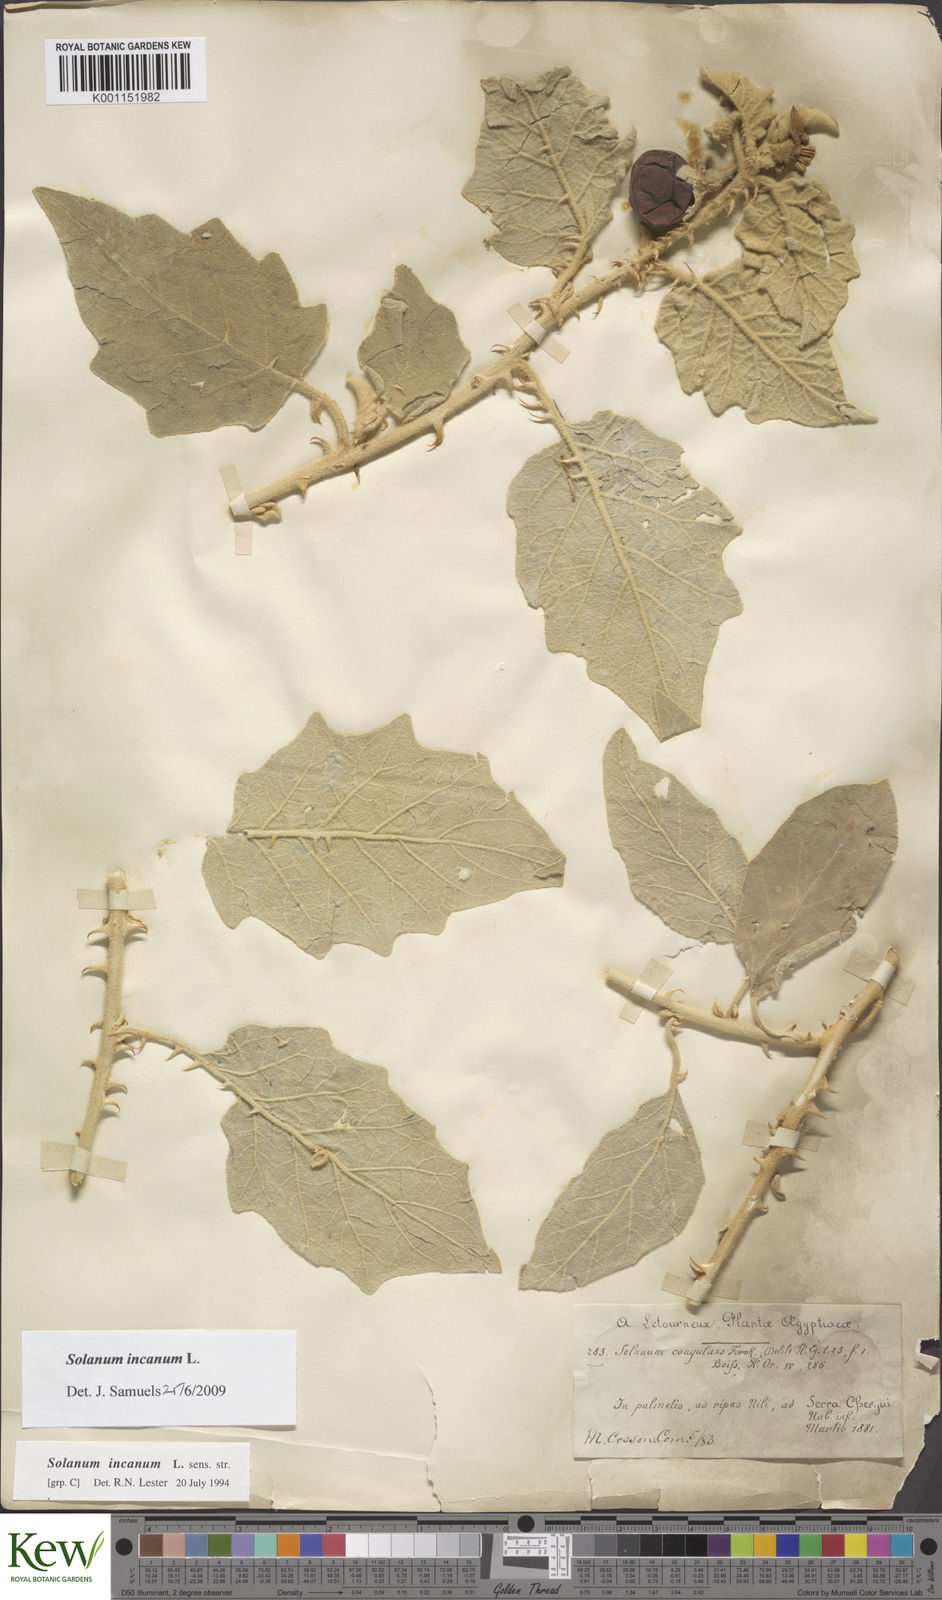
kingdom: Plantae
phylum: Tracheophyta
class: Magnoliopsida
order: Solanales
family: Solanaceae
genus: Solanum
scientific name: Solanum incanum
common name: Bitter apple
